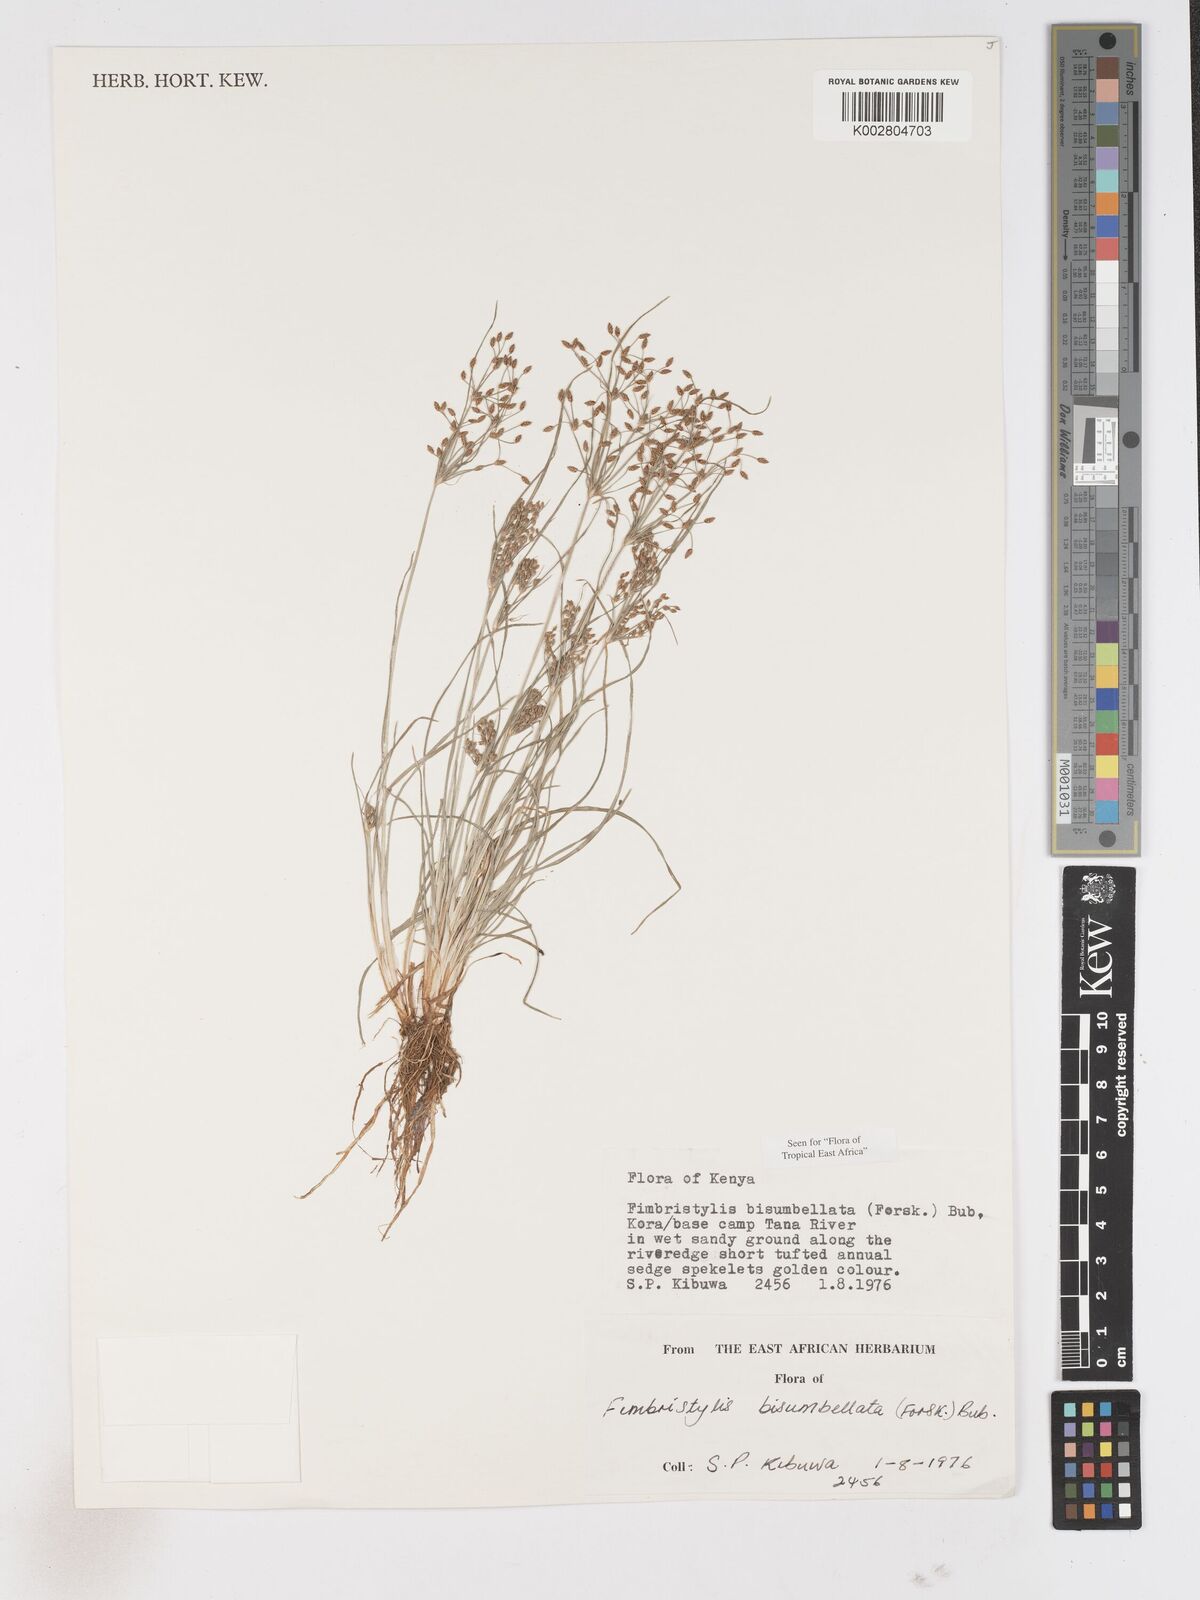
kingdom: Plantae
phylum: Tracheophyta
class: Liliopsida
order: Poales
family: Cyperaceae
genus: Fimbristylis
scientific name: Fimbristylis bisumbellata
